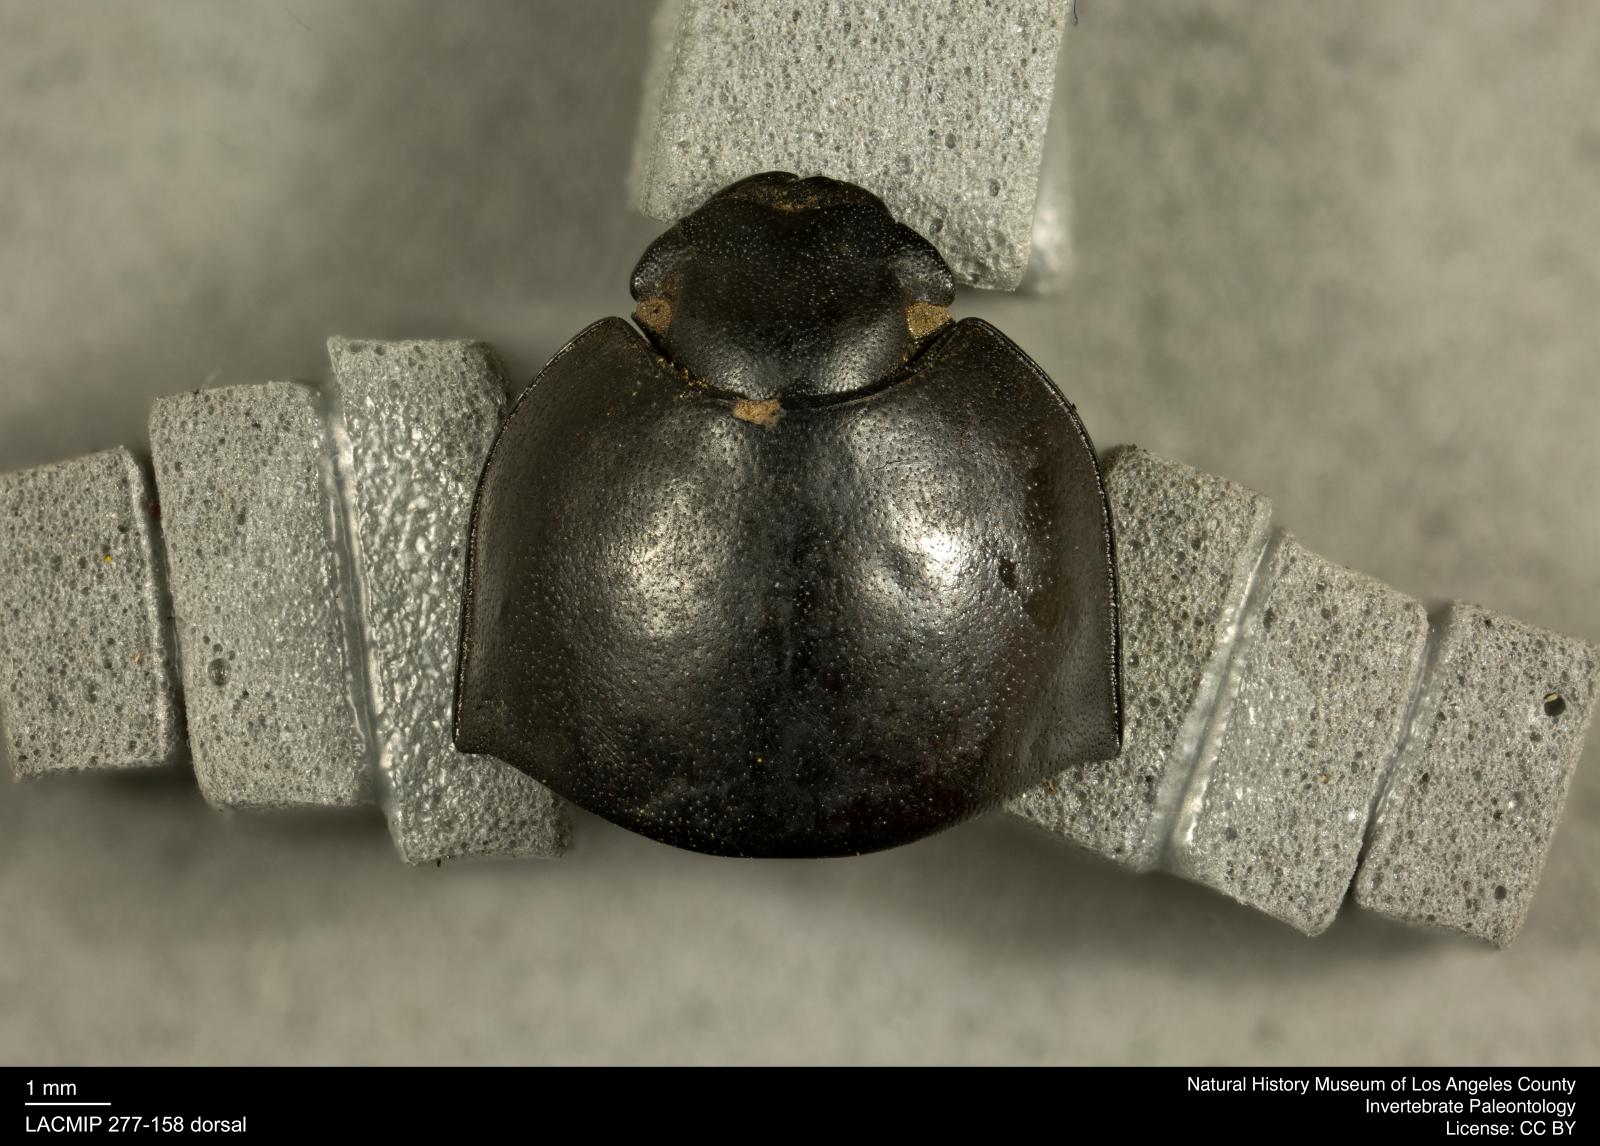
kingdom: Animalia
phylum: Arthropoda
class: Insecta
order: Coleoptera
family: Tenebrionidae
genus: Coniontis
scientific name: Coniontis abdominalis
